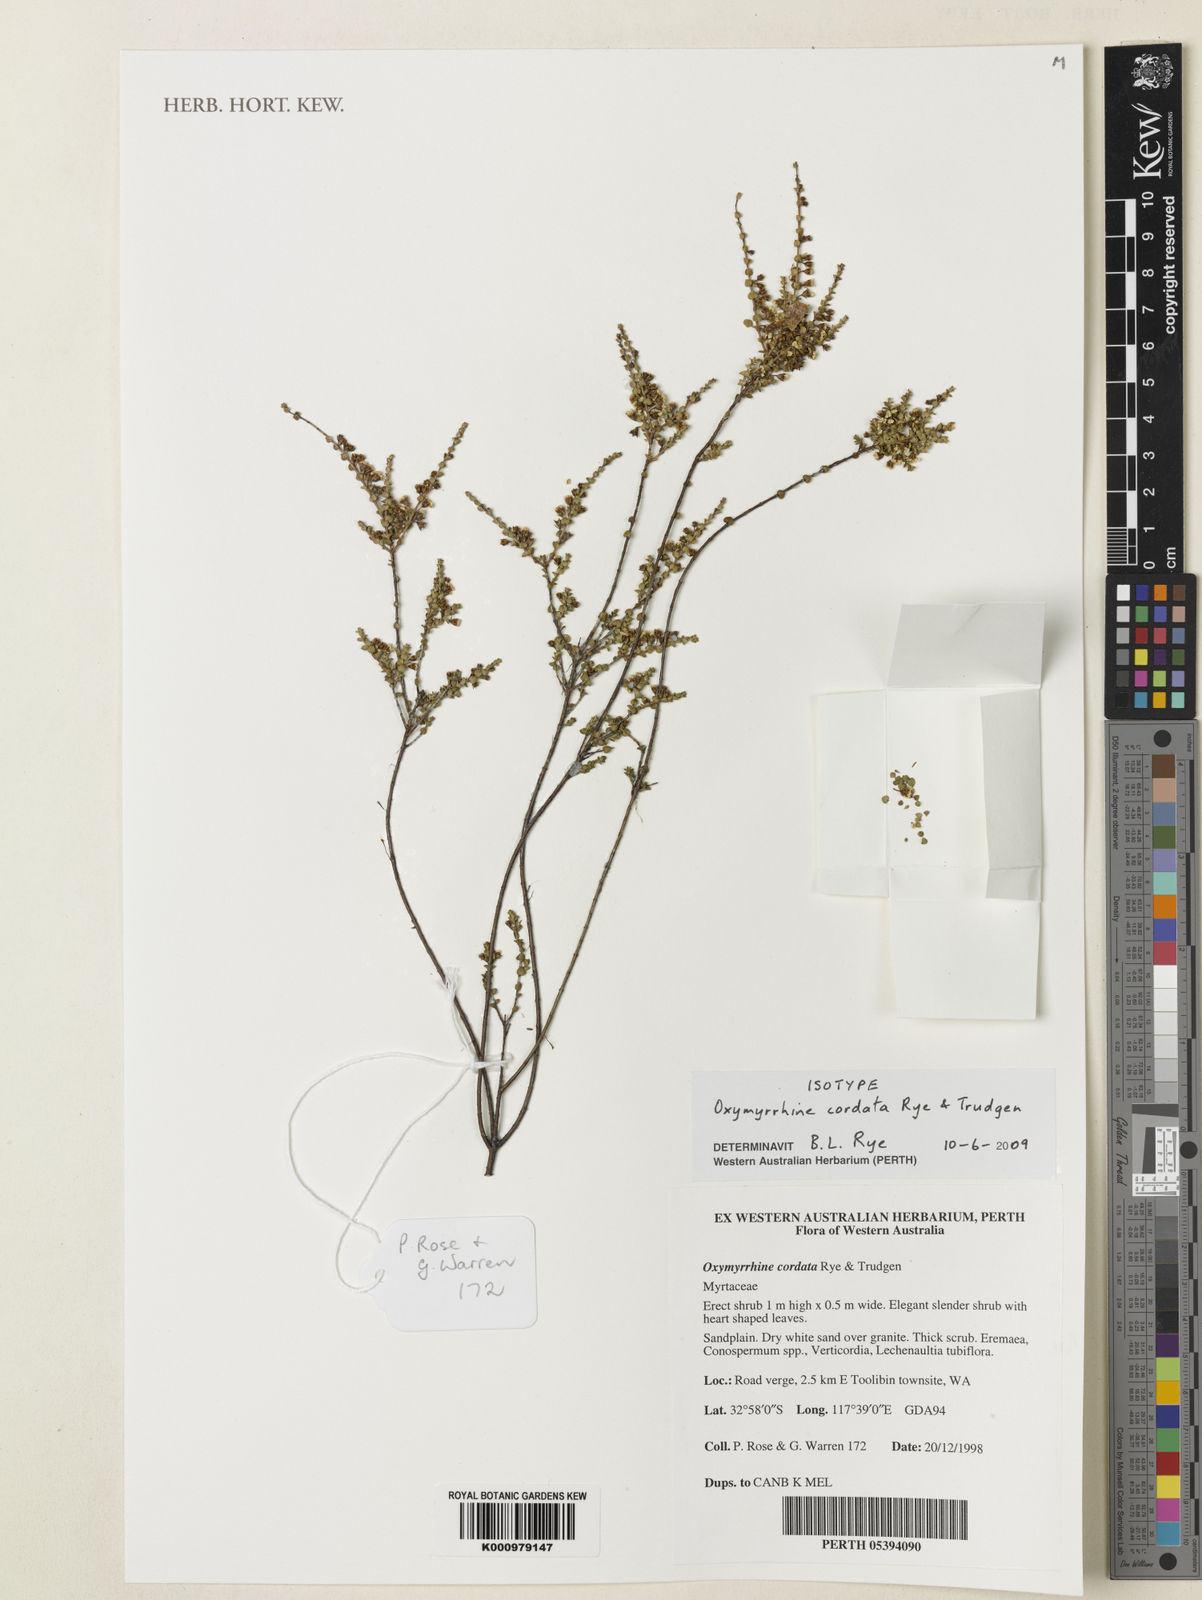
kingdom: Plantae
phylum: Tracheophyta
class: Magnoliopsida
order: Myrtales
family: Myrtaceae
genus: Oxymyrrhine
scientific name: Oxymyrrhine cordata
